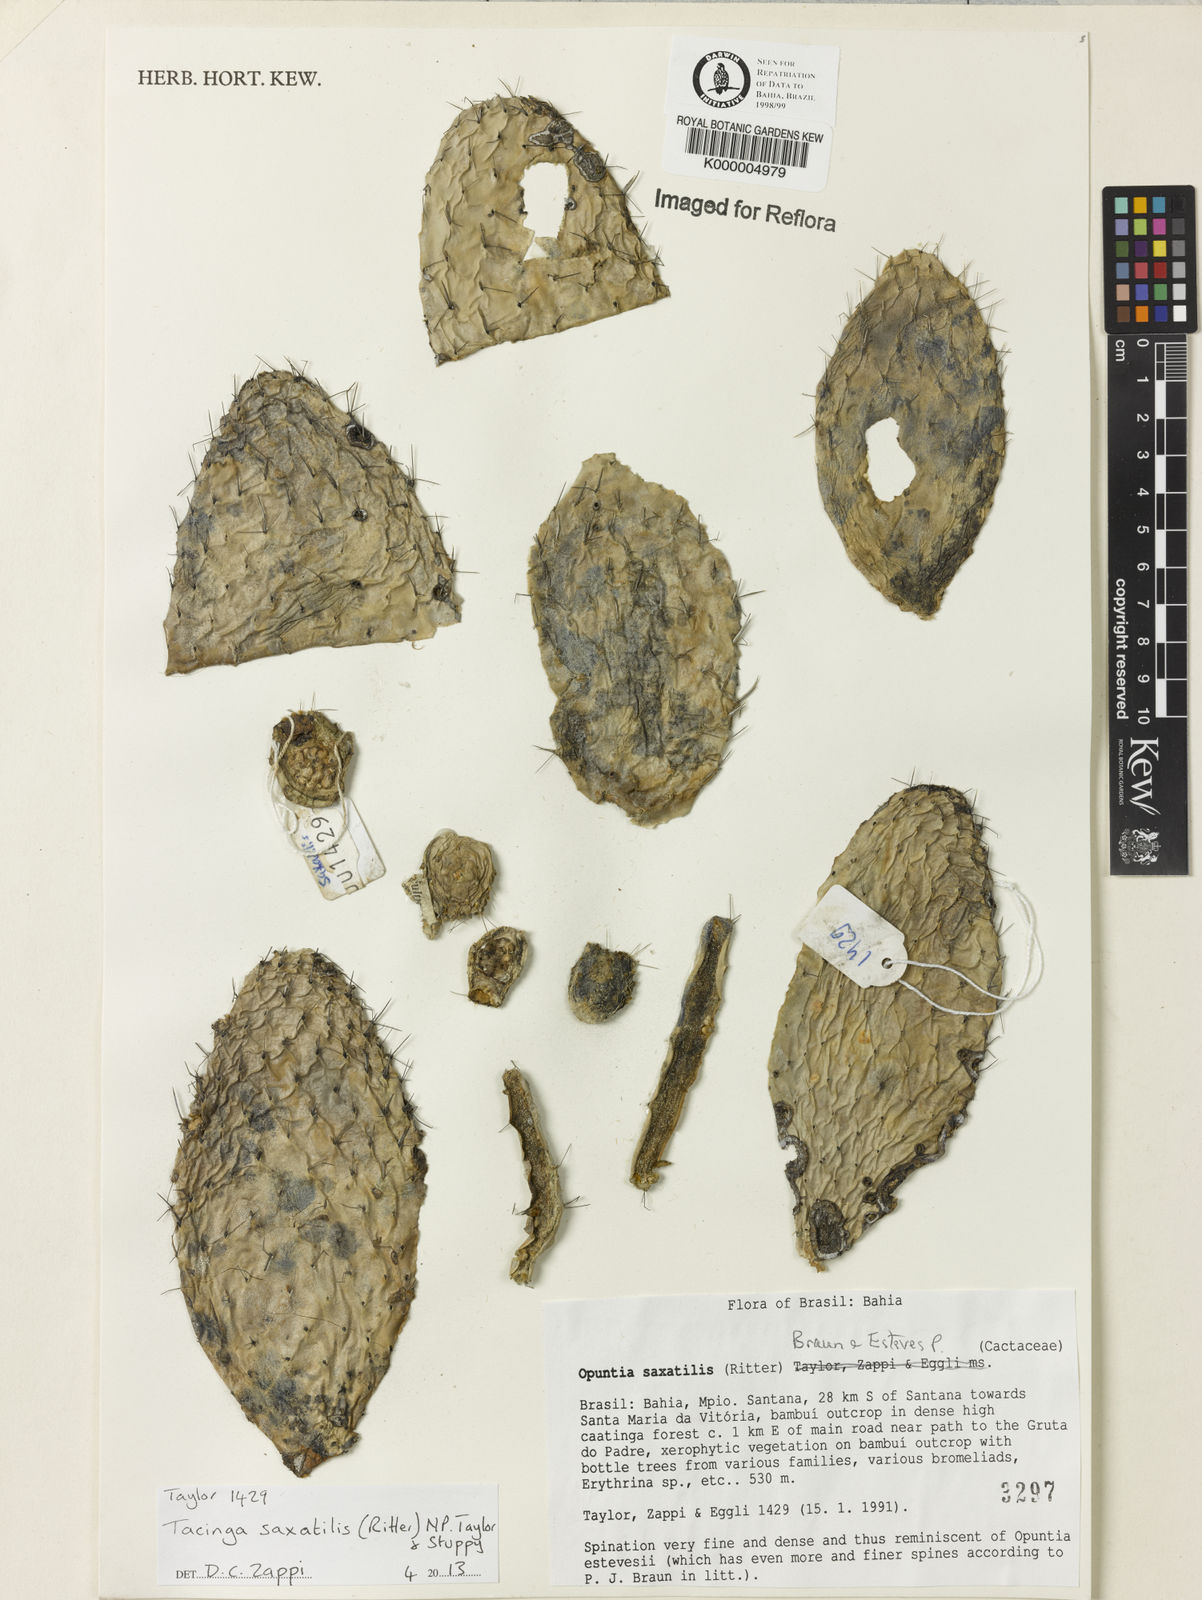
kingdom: Plantae
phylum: Tracheophyta
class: Magnoliopsida
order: Caryophyllales
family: Cactaceae
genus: Tacinga
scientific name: Tacinga saxatilis
